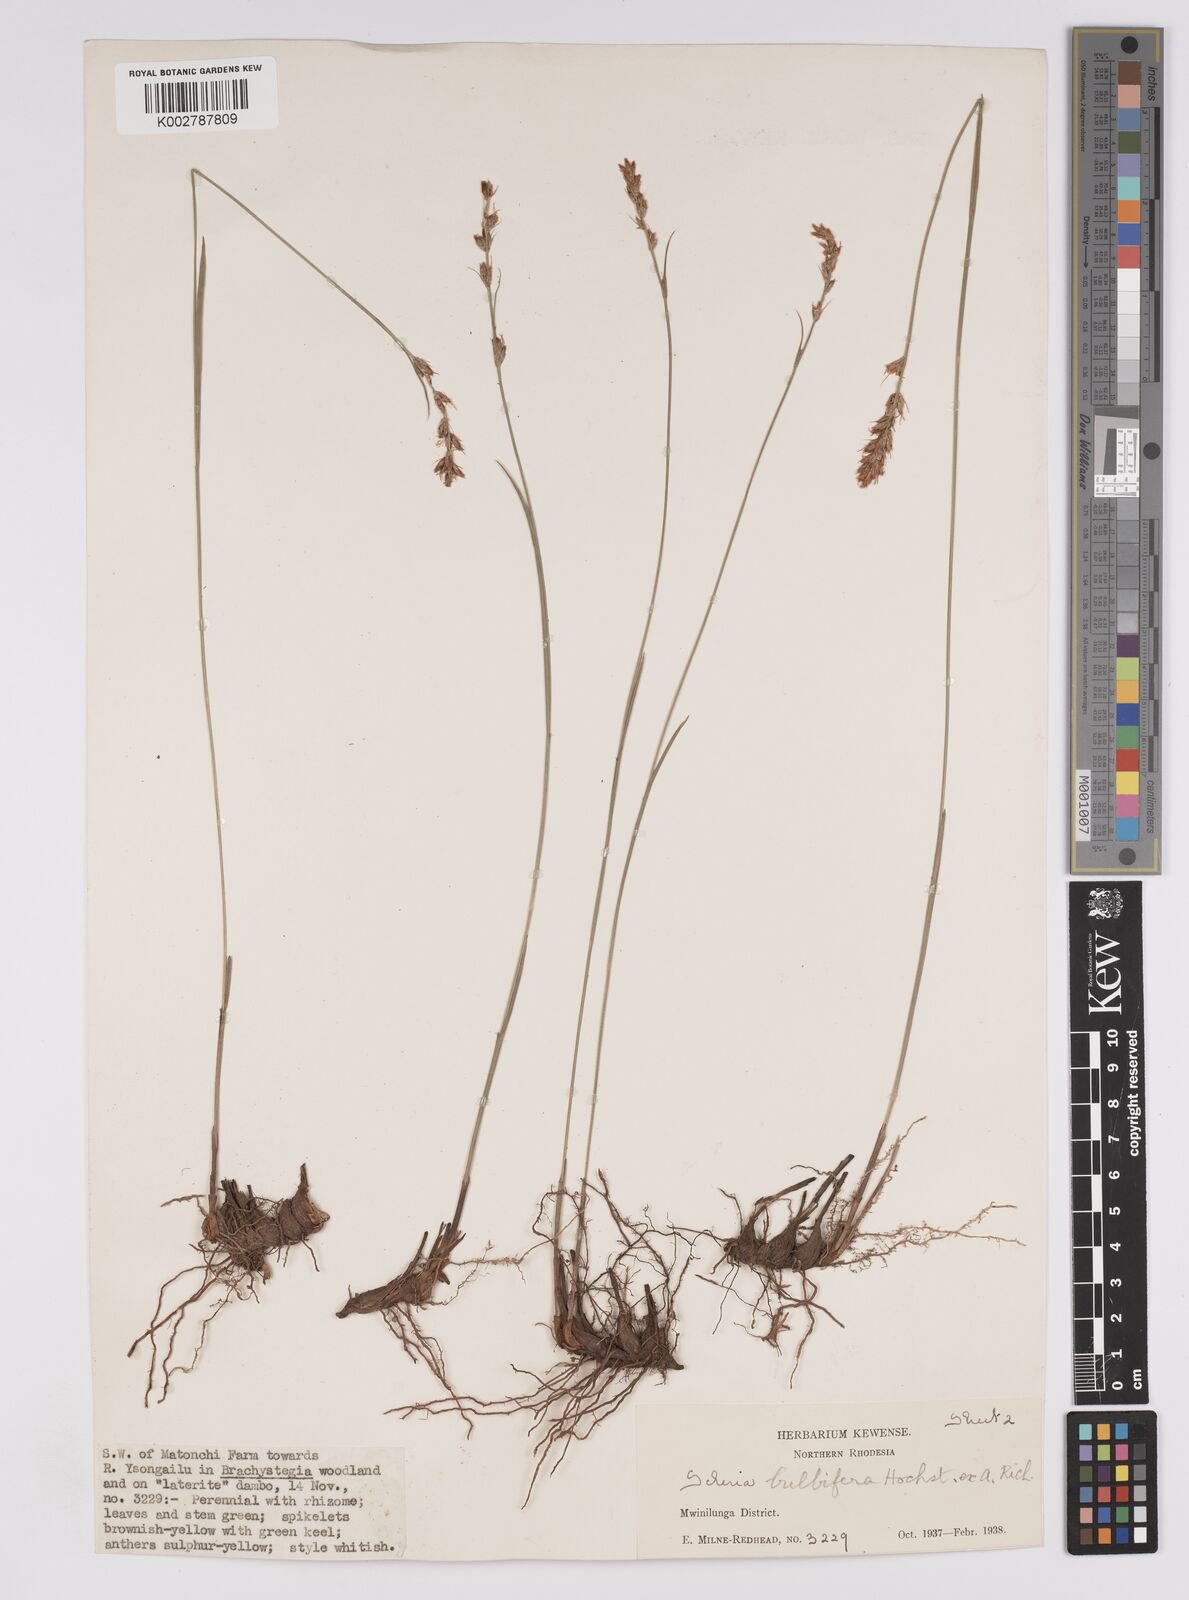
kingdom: Plantae
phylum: Tracheophyta
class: Liliopsida
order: Poales
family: Cyperaceae
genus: Scleria
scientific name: Scleria bulbifera
